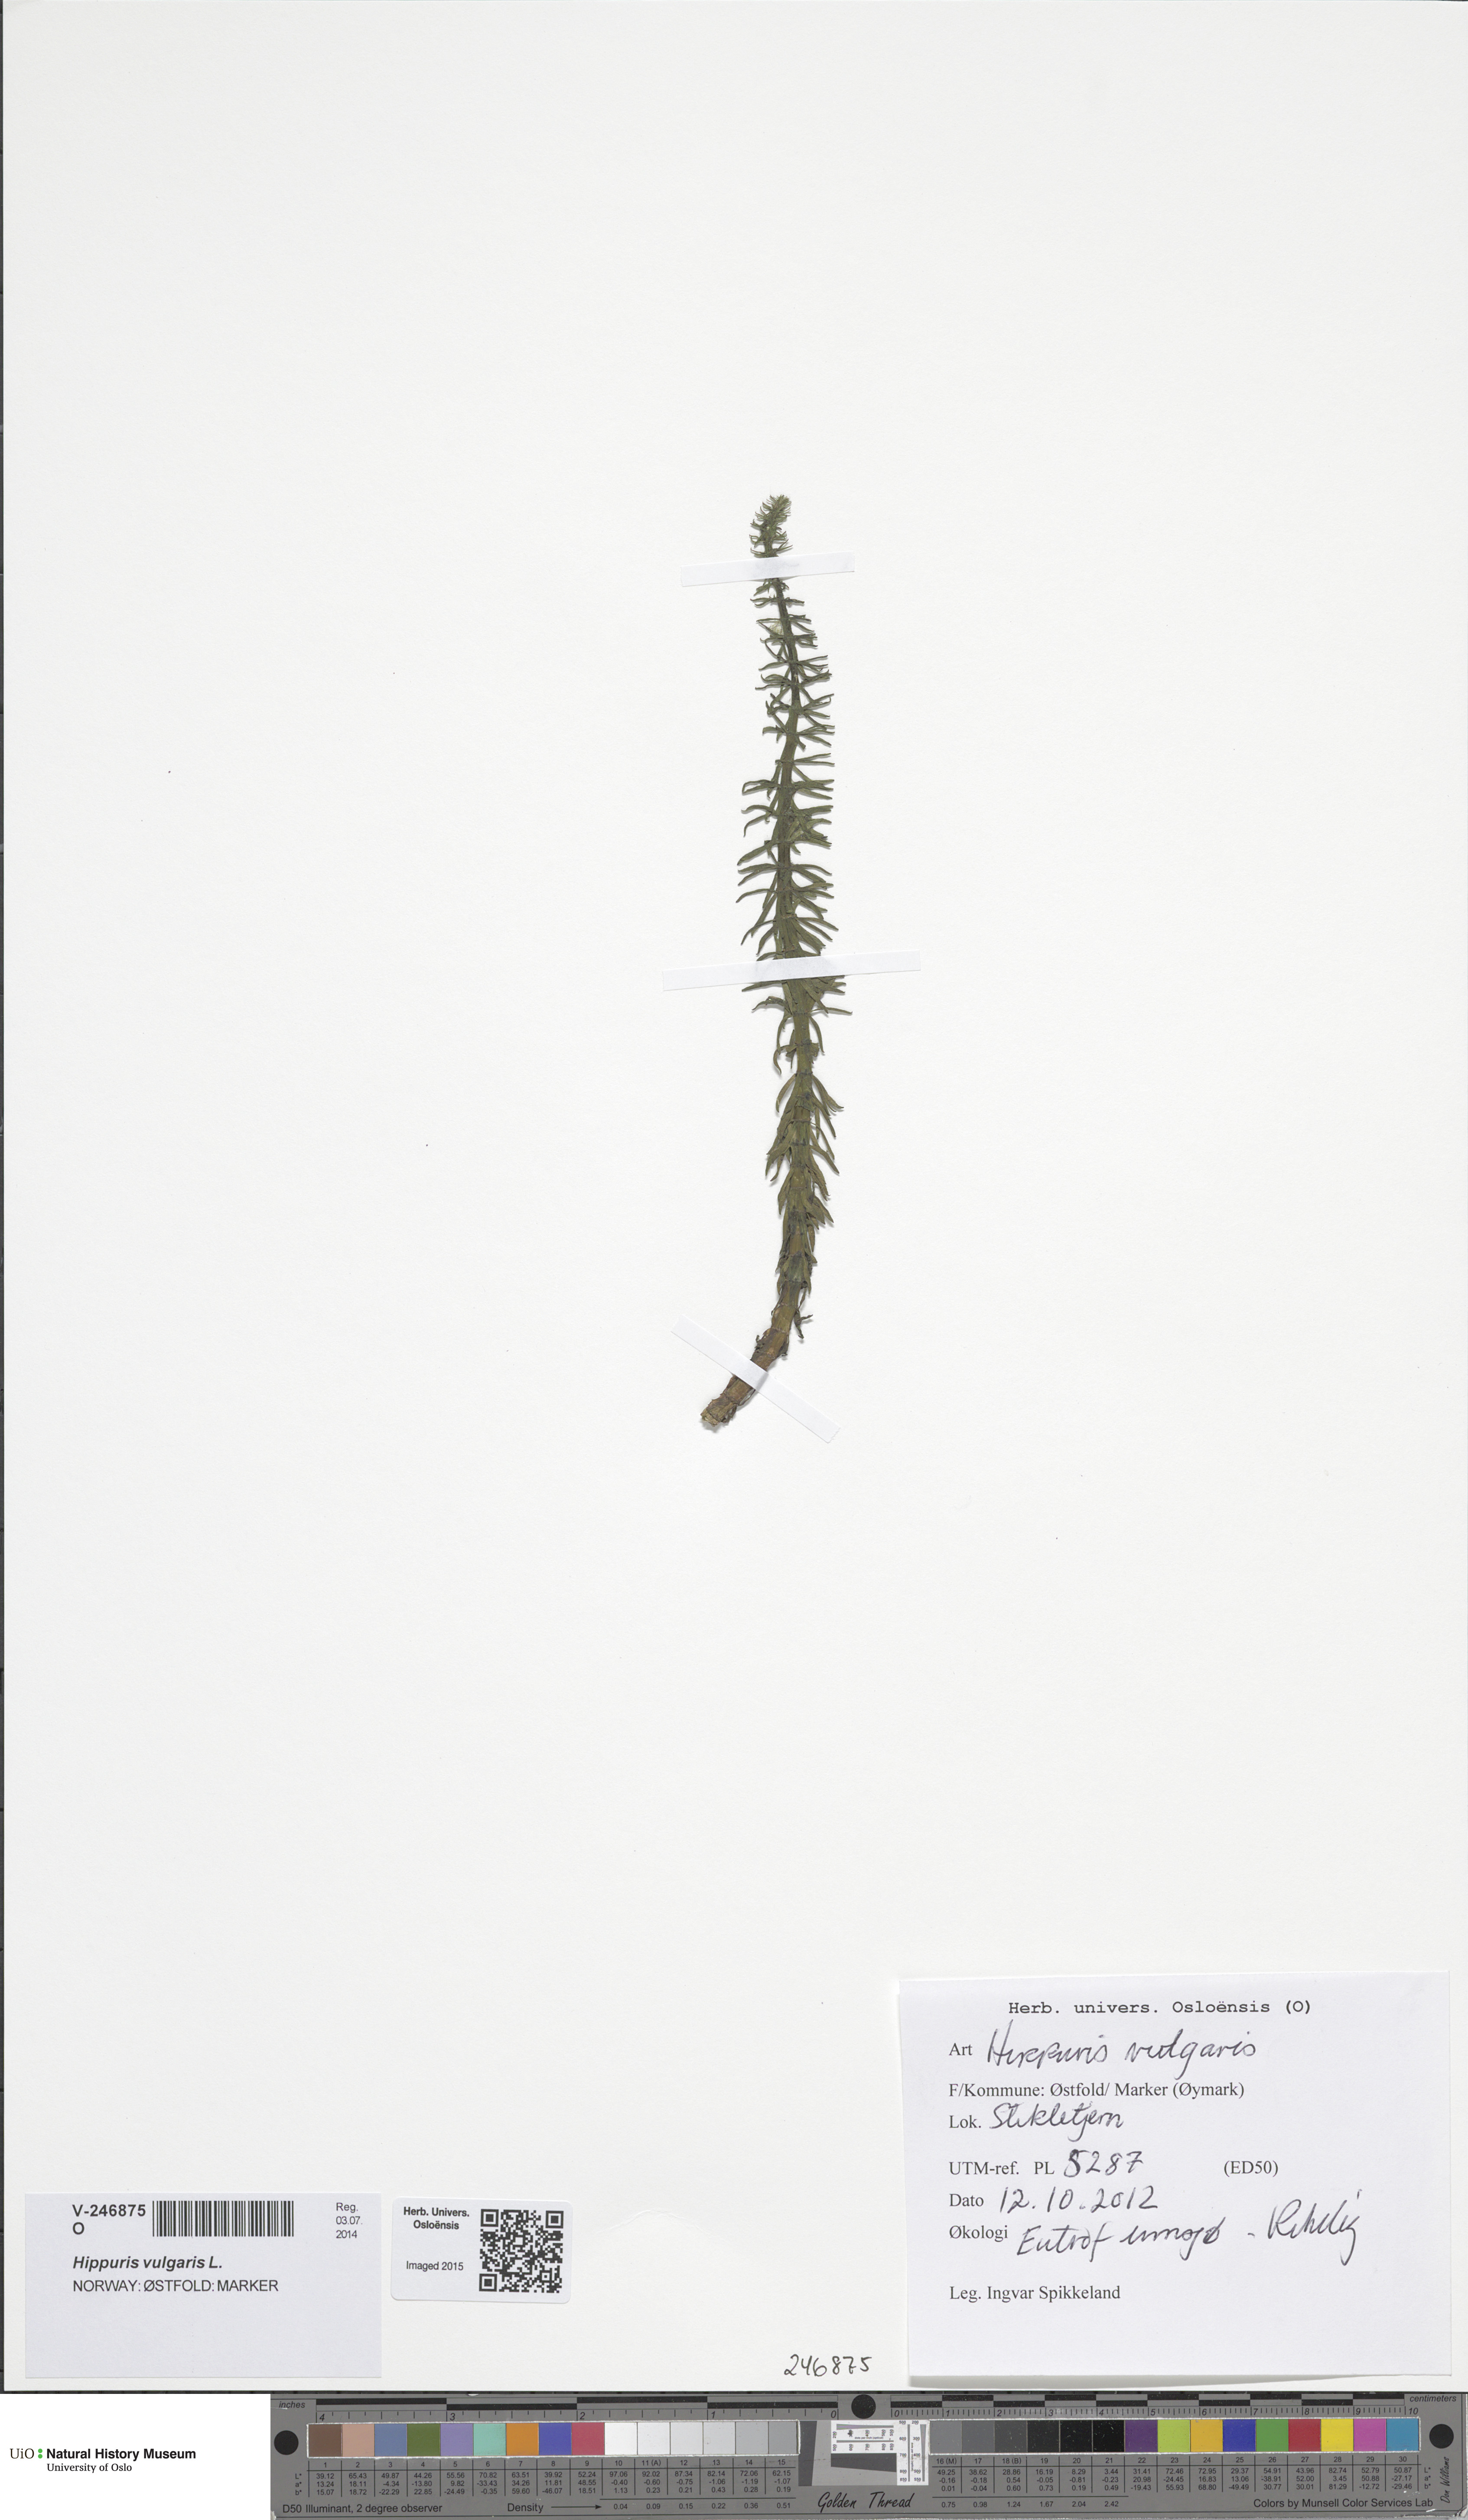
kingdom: Plantae
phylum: Tracheophyta
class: Magnoliopsida
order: Lamiales
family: Plantaginaceae
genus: Hippuris
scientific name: Hippuris vulgaris
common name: Mare's-tail
